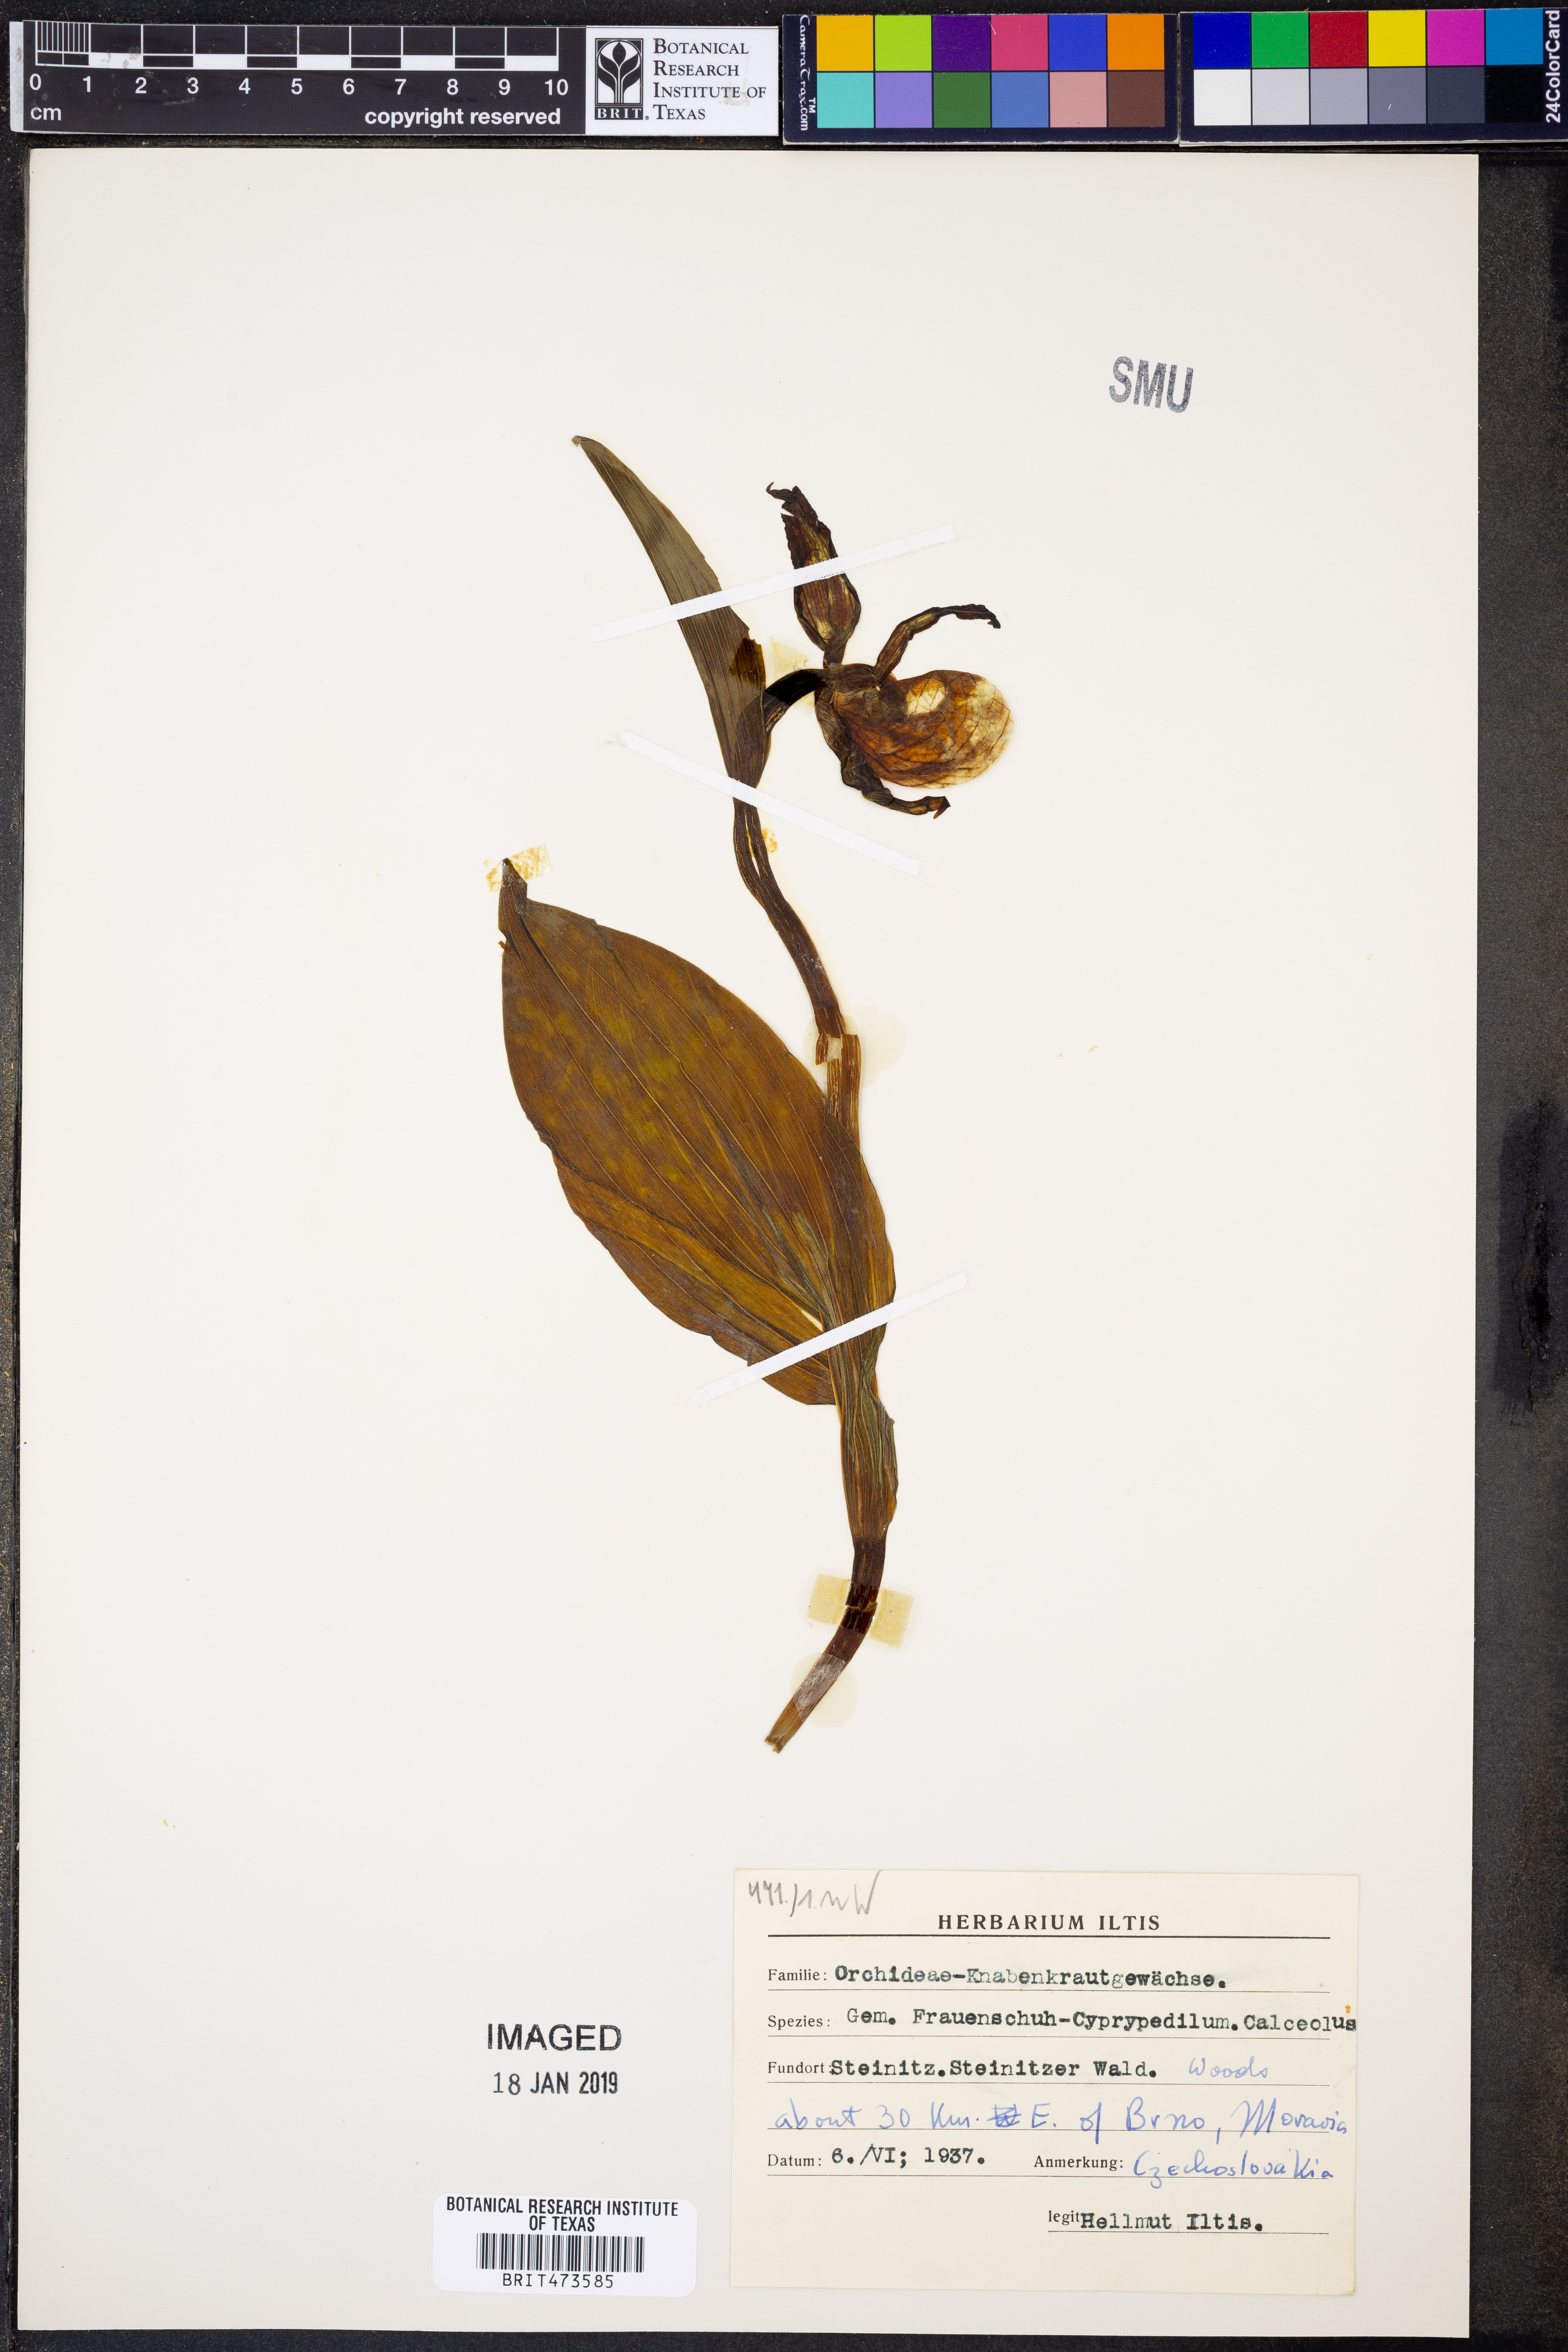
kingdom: Plantae
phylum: Tracheophyta
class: Liliopsida
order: Asparagales
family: Orchidaceae
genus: Cypripedium
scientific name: Cypripedium calceolus
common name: Lady's-slipper
